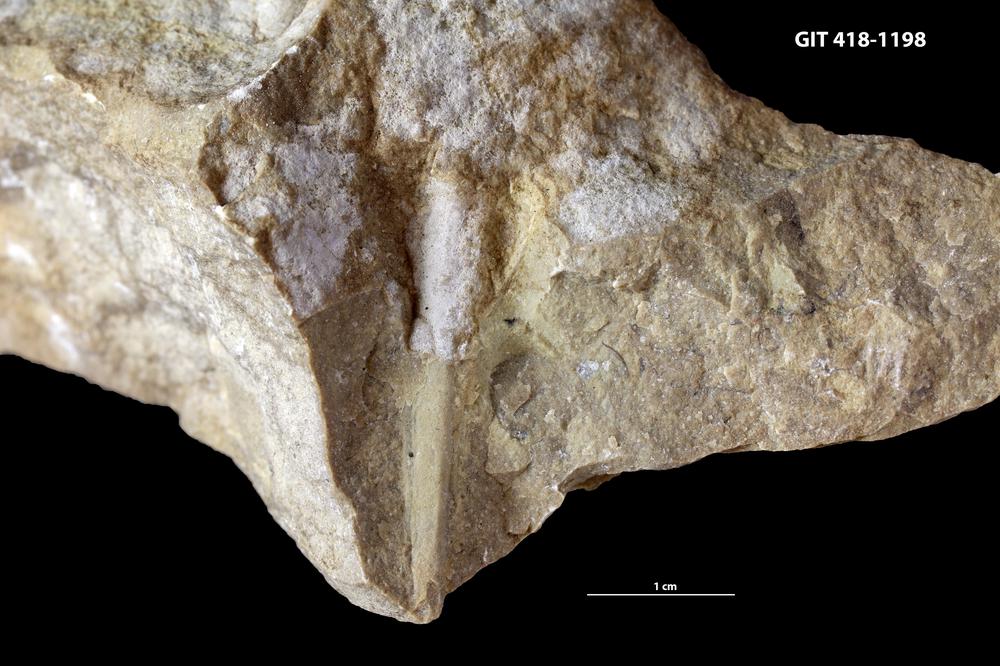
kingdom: Animalia
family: Hyolithidae
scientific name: Hyolithidae
